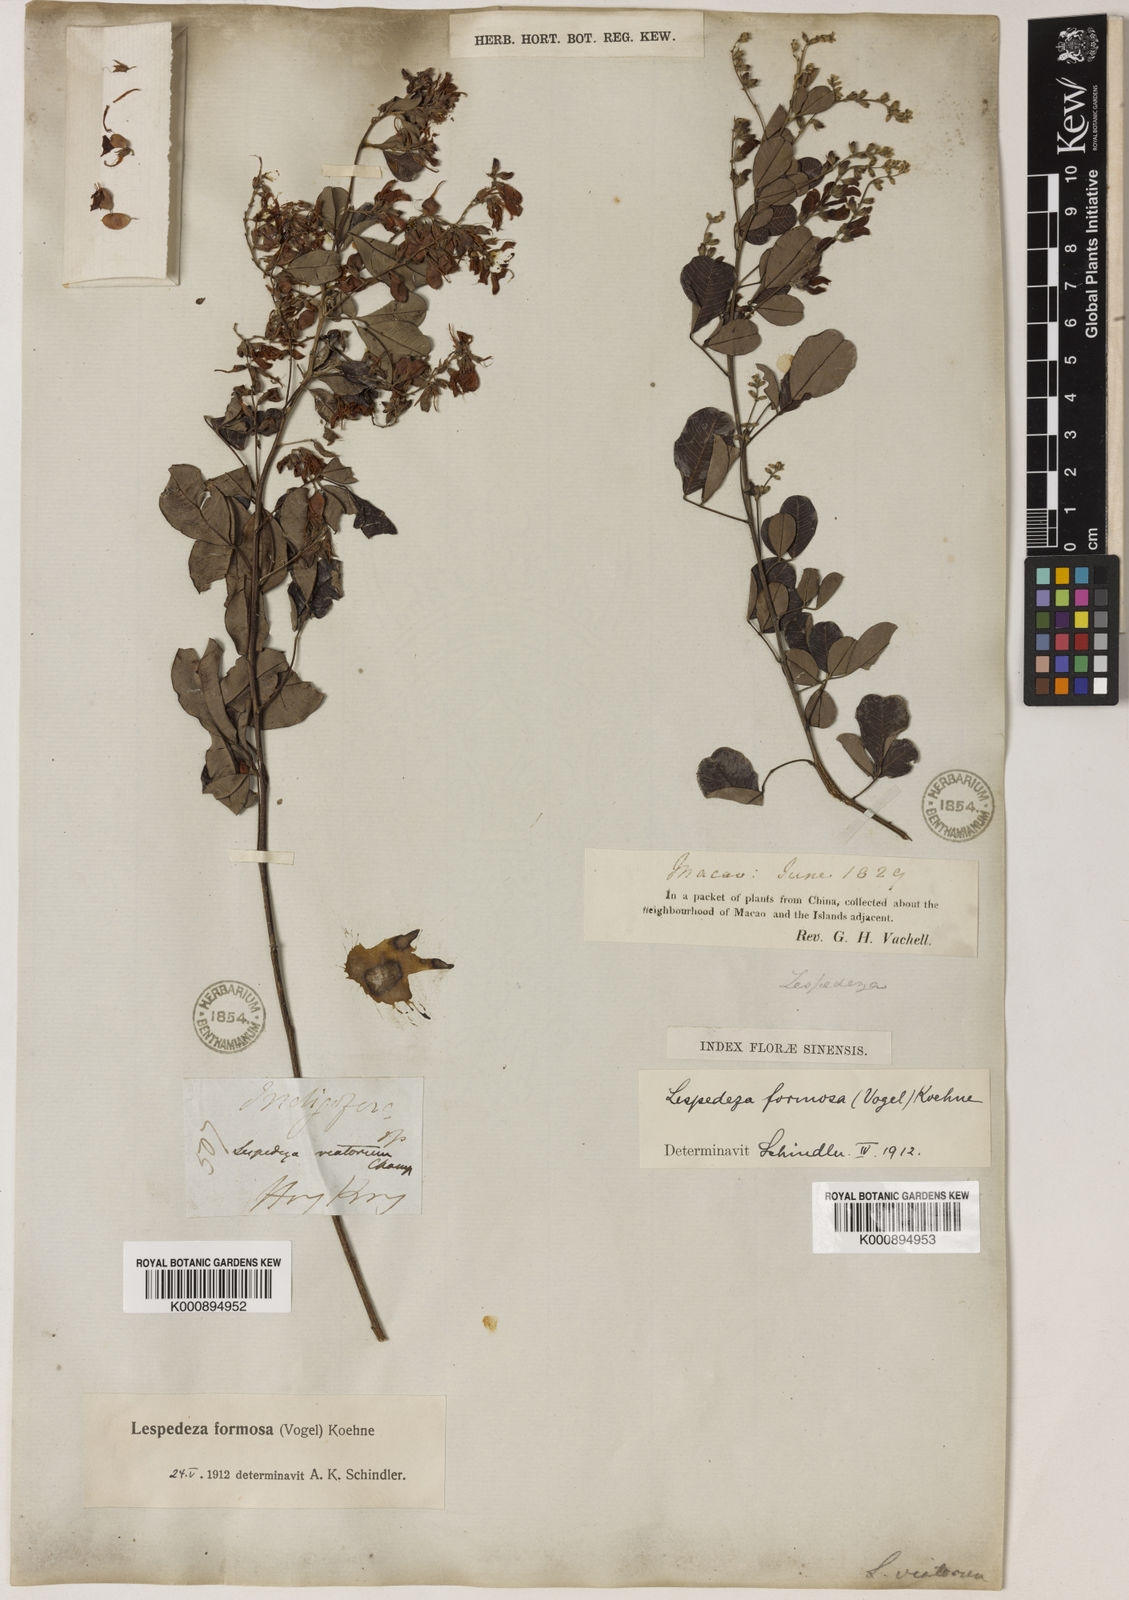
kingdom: Plantae
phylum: Tracheophyta
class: Magnoliopsida
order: Fabales
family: Fabaceae
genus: Lespedeza
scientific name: Lespedeza thunbergii
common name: Thunberg's lespedeza
